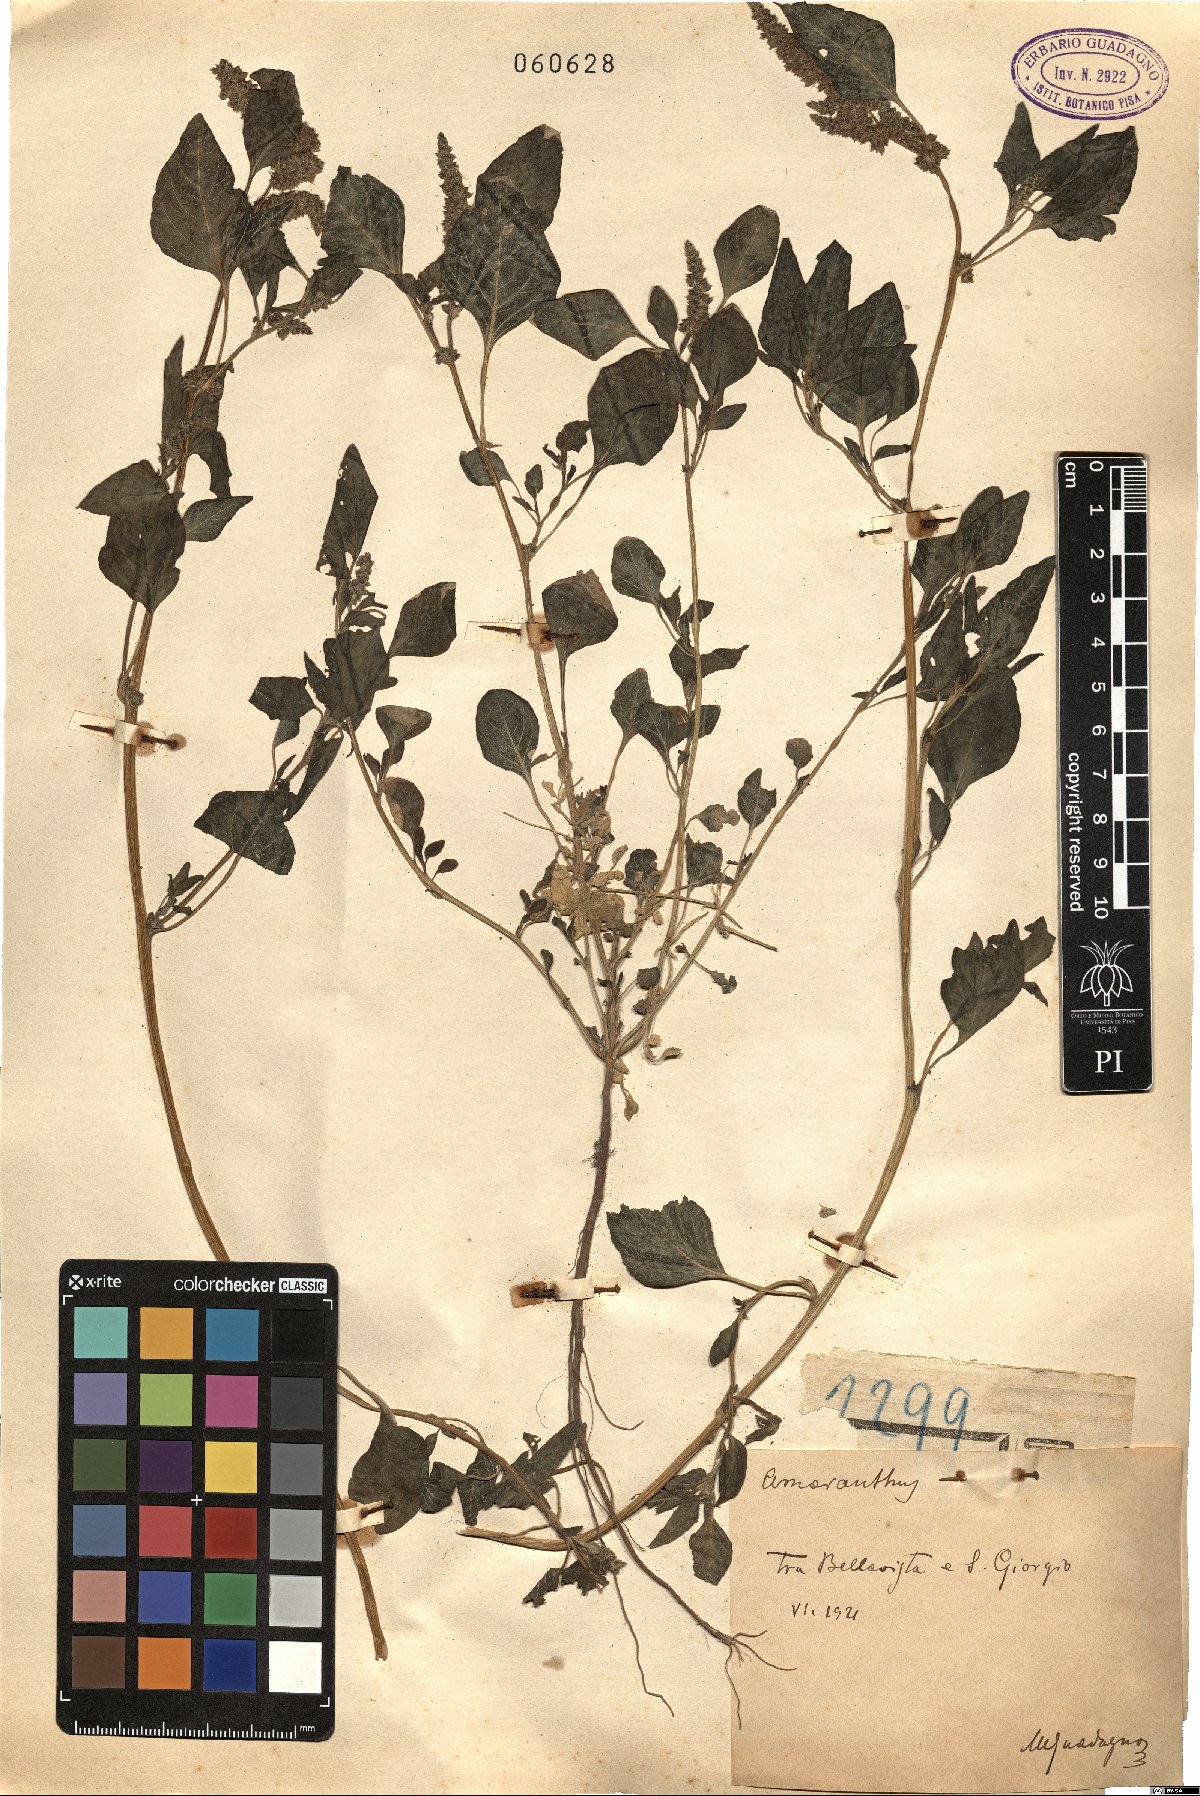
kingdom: Plantae
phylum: Tracheophyta
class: Magnoliopsida
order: Caryophyllales
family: Amaranthaceae
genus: Amaranthus
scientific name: Amaranthus
